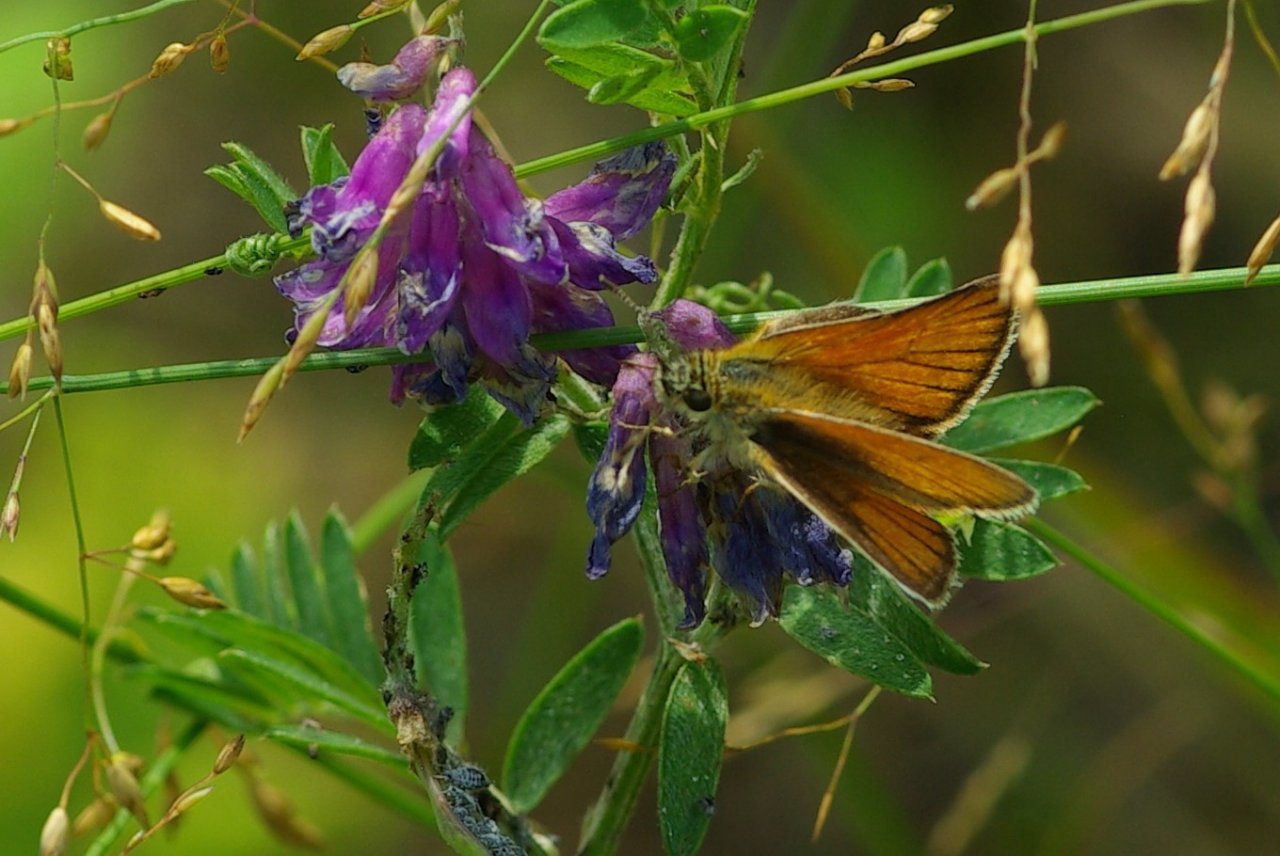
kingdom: Animalia
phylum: Arthropoda
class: Insecta
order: Lepidoptera
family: Hesperiidae
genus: Thymelicus
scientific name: Thymelicus lineola
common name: European Skipper
